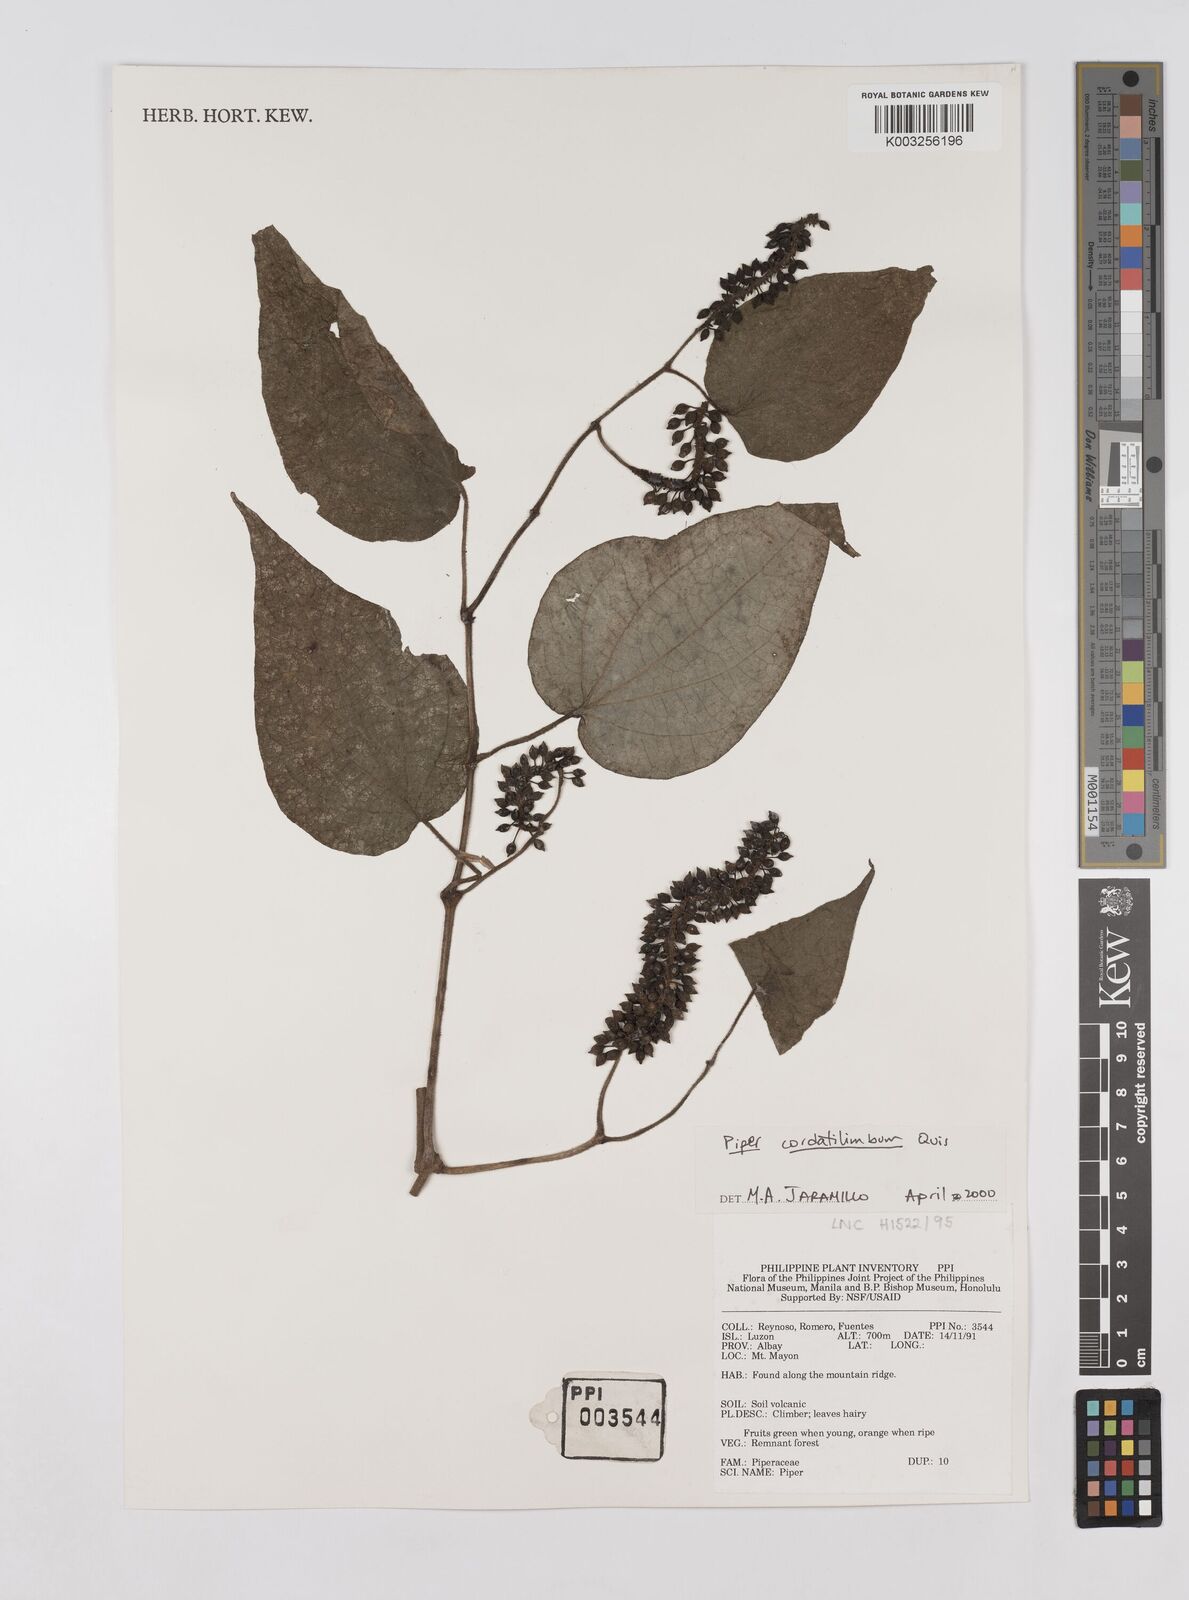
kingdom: Plantae
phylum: Tracheophyta
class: Magnoliopsida
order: Piperales
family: Piperaceae
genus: Piper
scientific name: Piper cordatilimbum
